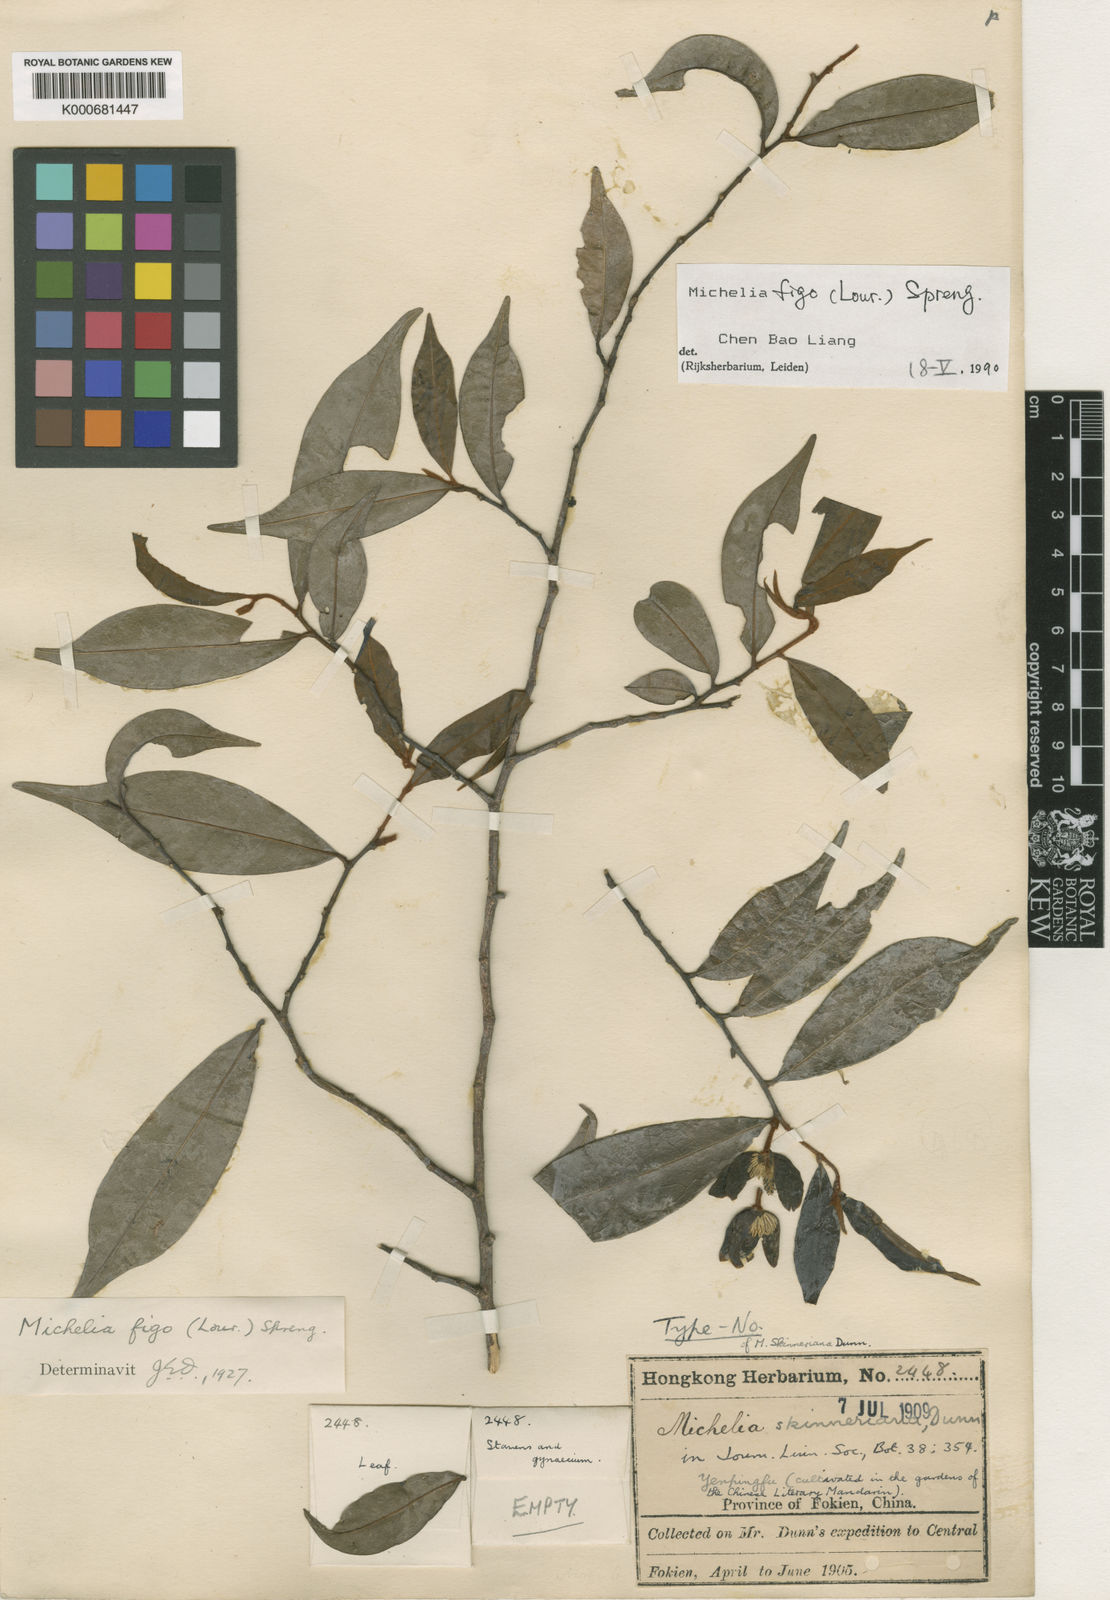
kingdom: Plantae
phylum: Tracheophyta
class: Magnoliopsida
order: Magnoliales
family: Magnoliaceae
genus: Magnolia
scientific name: Magnolia figo
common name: Banana shrub
